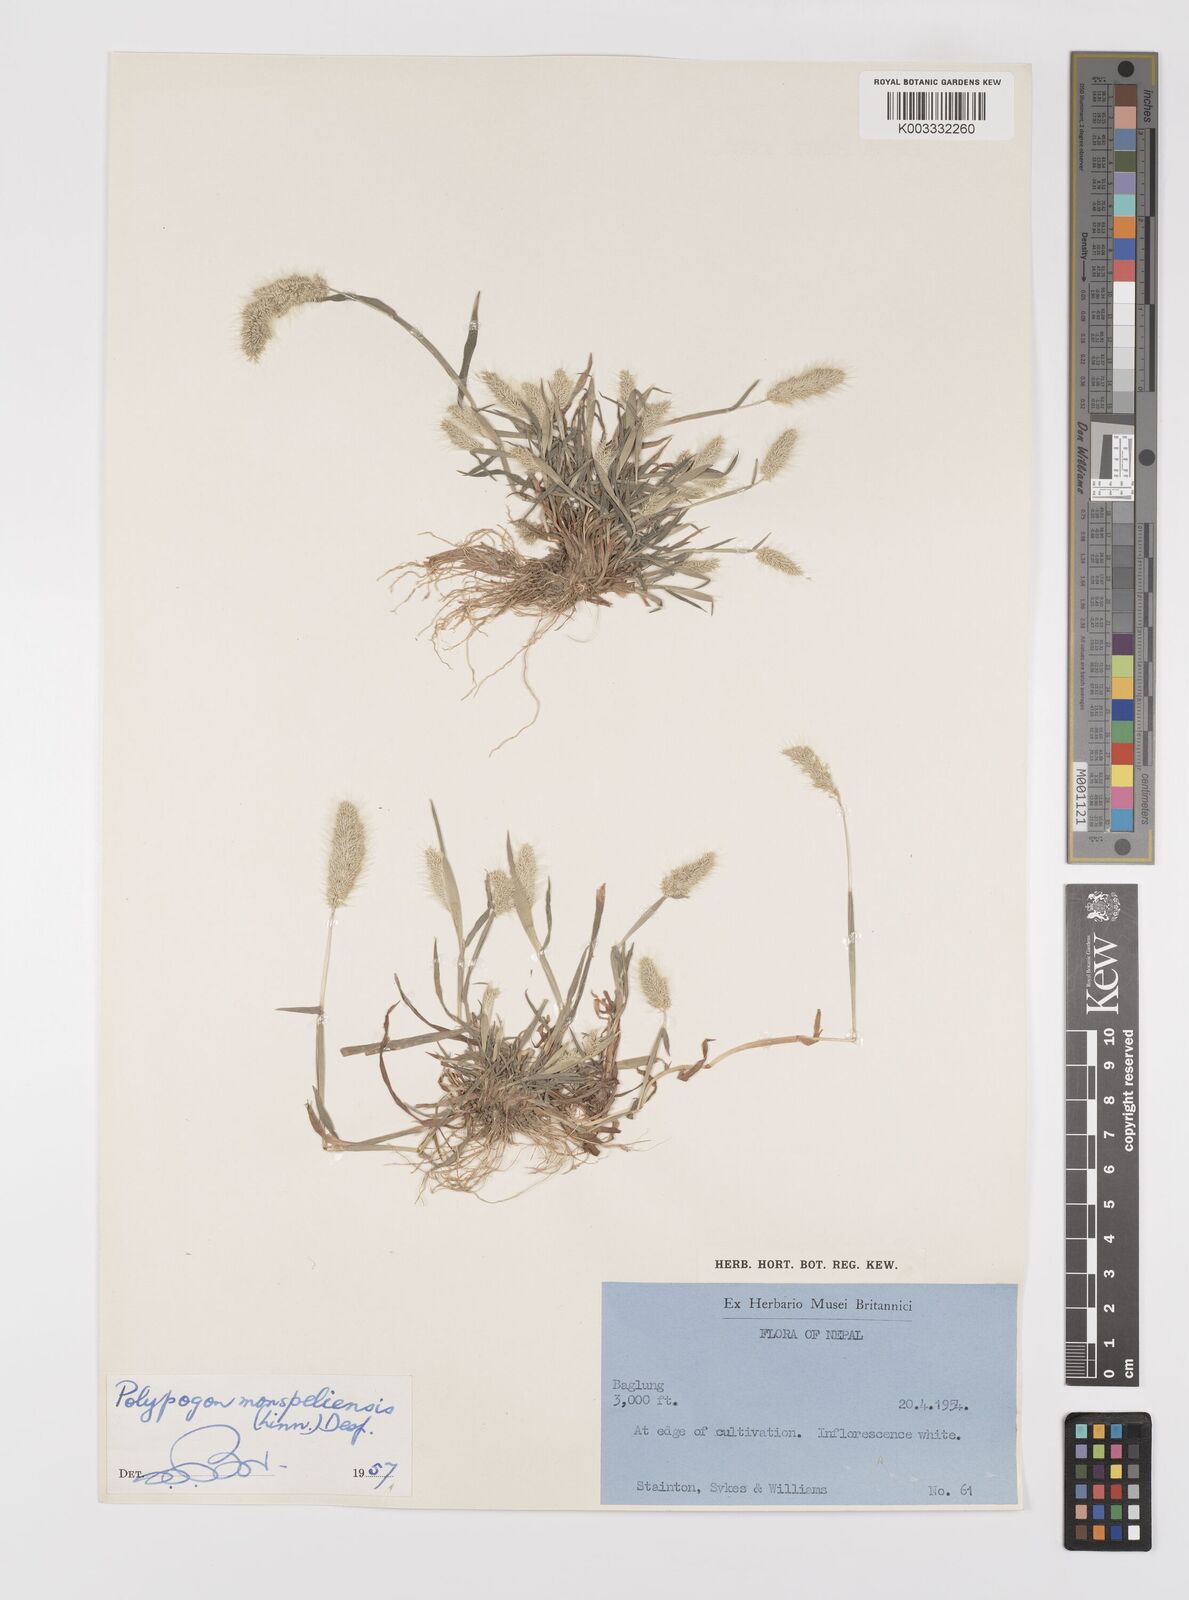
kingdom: Plantae
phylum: Tracheophyta
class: Liliopsida
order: Poales
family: Poaceae
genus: Polypogon
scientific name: Polypogon monspeliensis
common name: Annual rabbitsfoot grass
